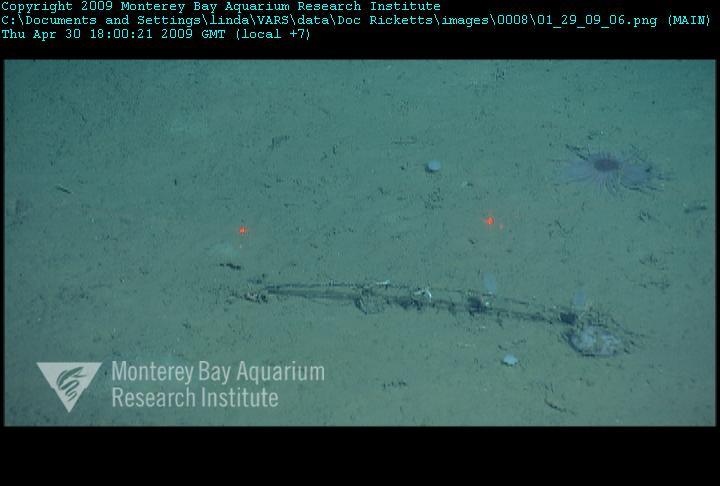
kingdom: Animalia
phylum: Porifera
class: Hexactinellida
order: Lyssacinosida
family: Rossellidae
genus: Bathydorus
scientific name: Bathydorus spinosus
